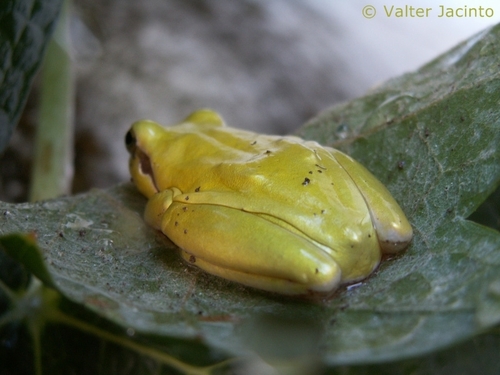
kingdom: Animalia
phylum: Chordata
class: Amphibia
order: Anura
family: Hylidae
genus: Hyla
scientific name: Hyla meridionalis
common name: Stripeless tree frog
